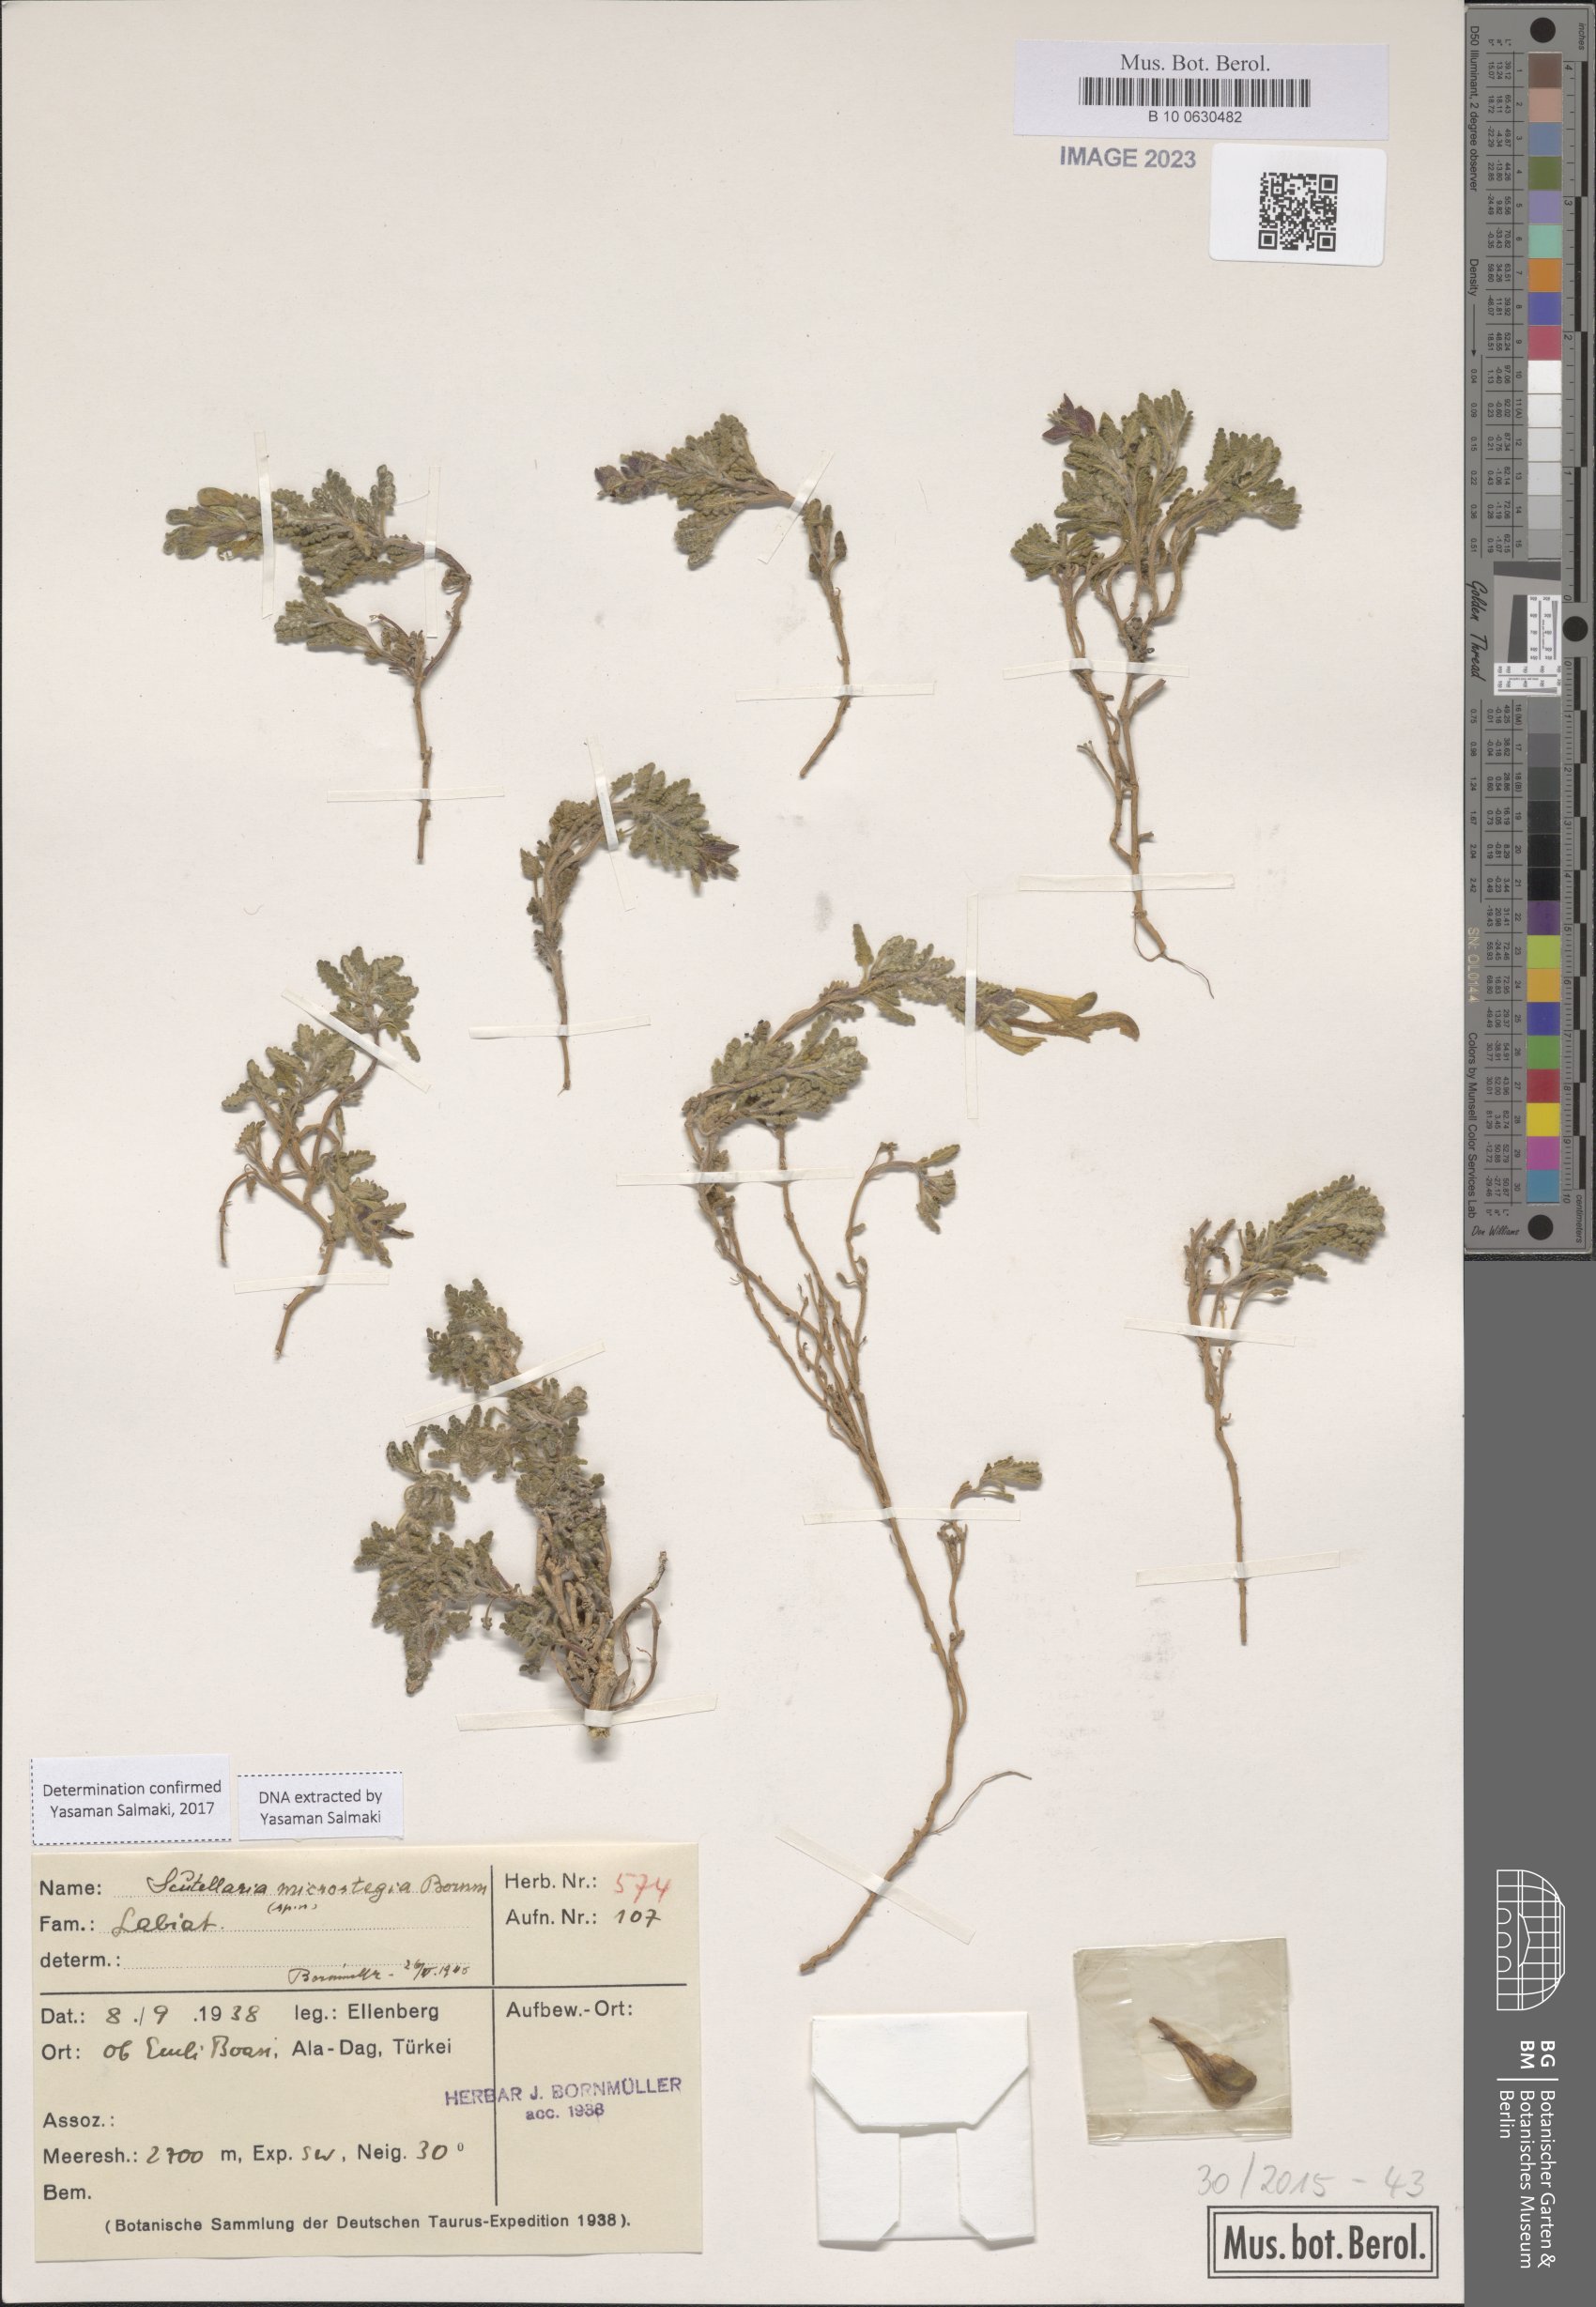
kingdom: Plantae
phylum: Tracheophyta
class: Magnoliopsida
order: Lamiales
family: Lamiaceae
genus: Scutellaria
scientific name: Scutellaria orientalis
